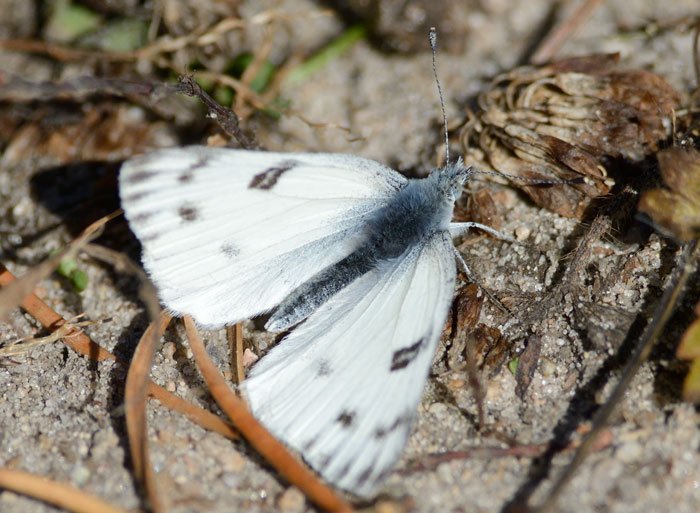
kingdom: Animalia
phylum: Arthropoda
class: Insecta
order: Lepidoptera
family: Pieridae
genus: Pontia
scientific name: Pontia occidentalis
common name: Western White
